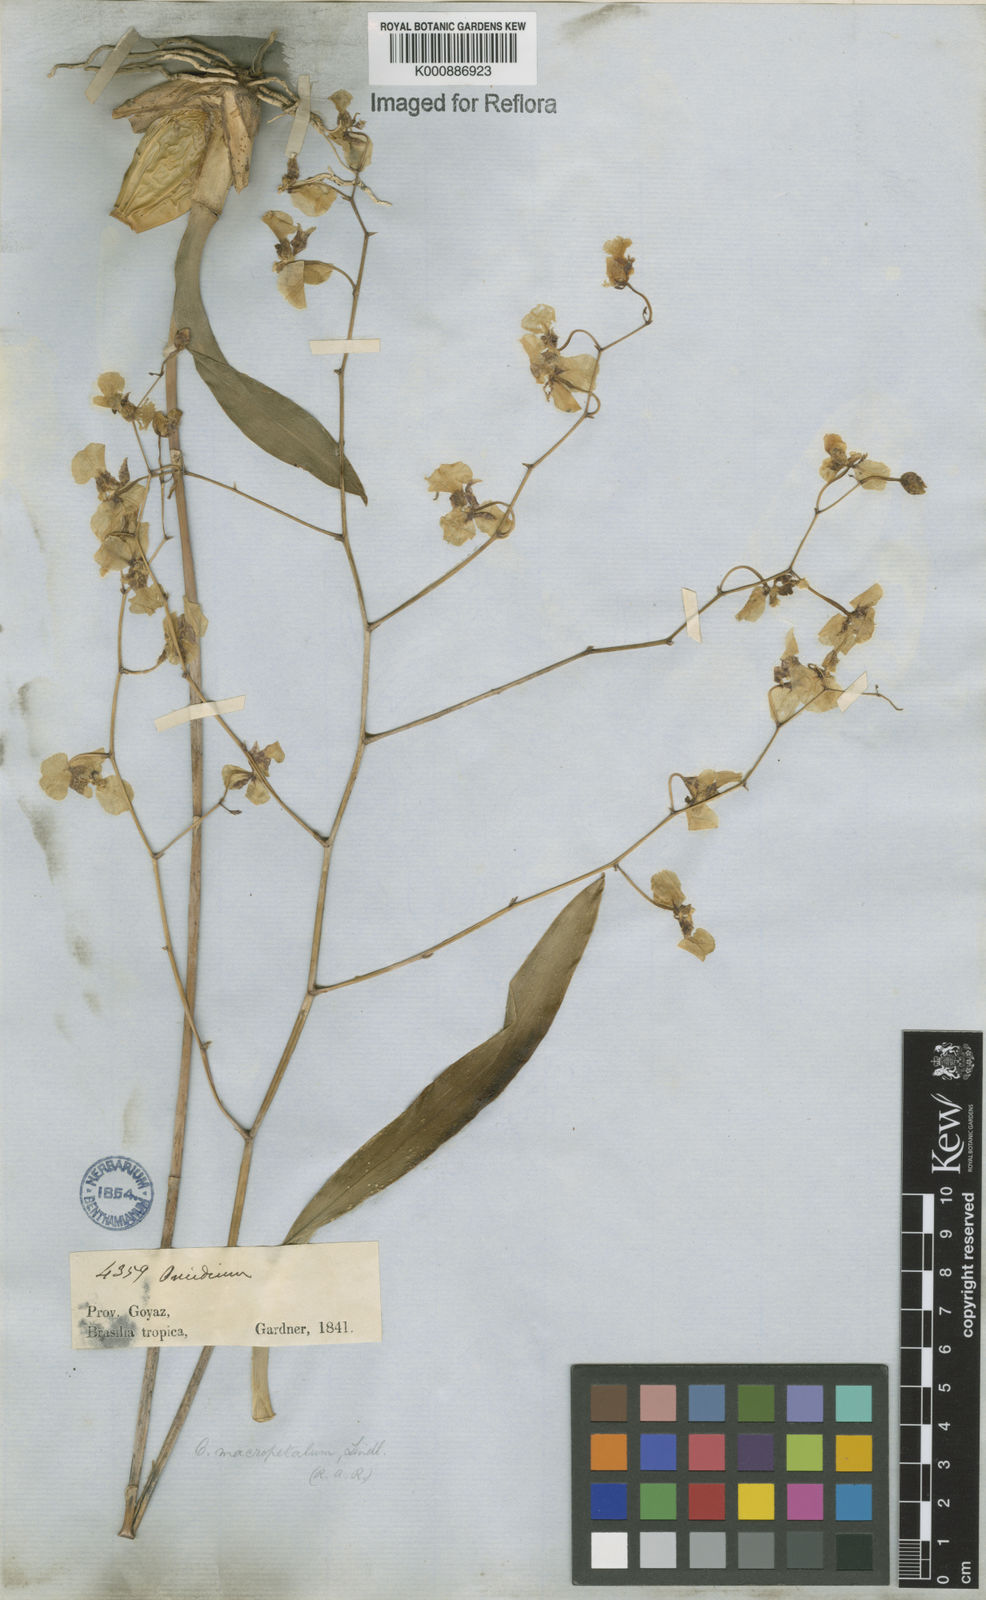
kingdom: Plantae
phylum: Tracheophyta
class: Liliopsida
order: Asparagales
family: Orchidaceae
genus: Gomesa
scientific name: Gomesa macropetala
